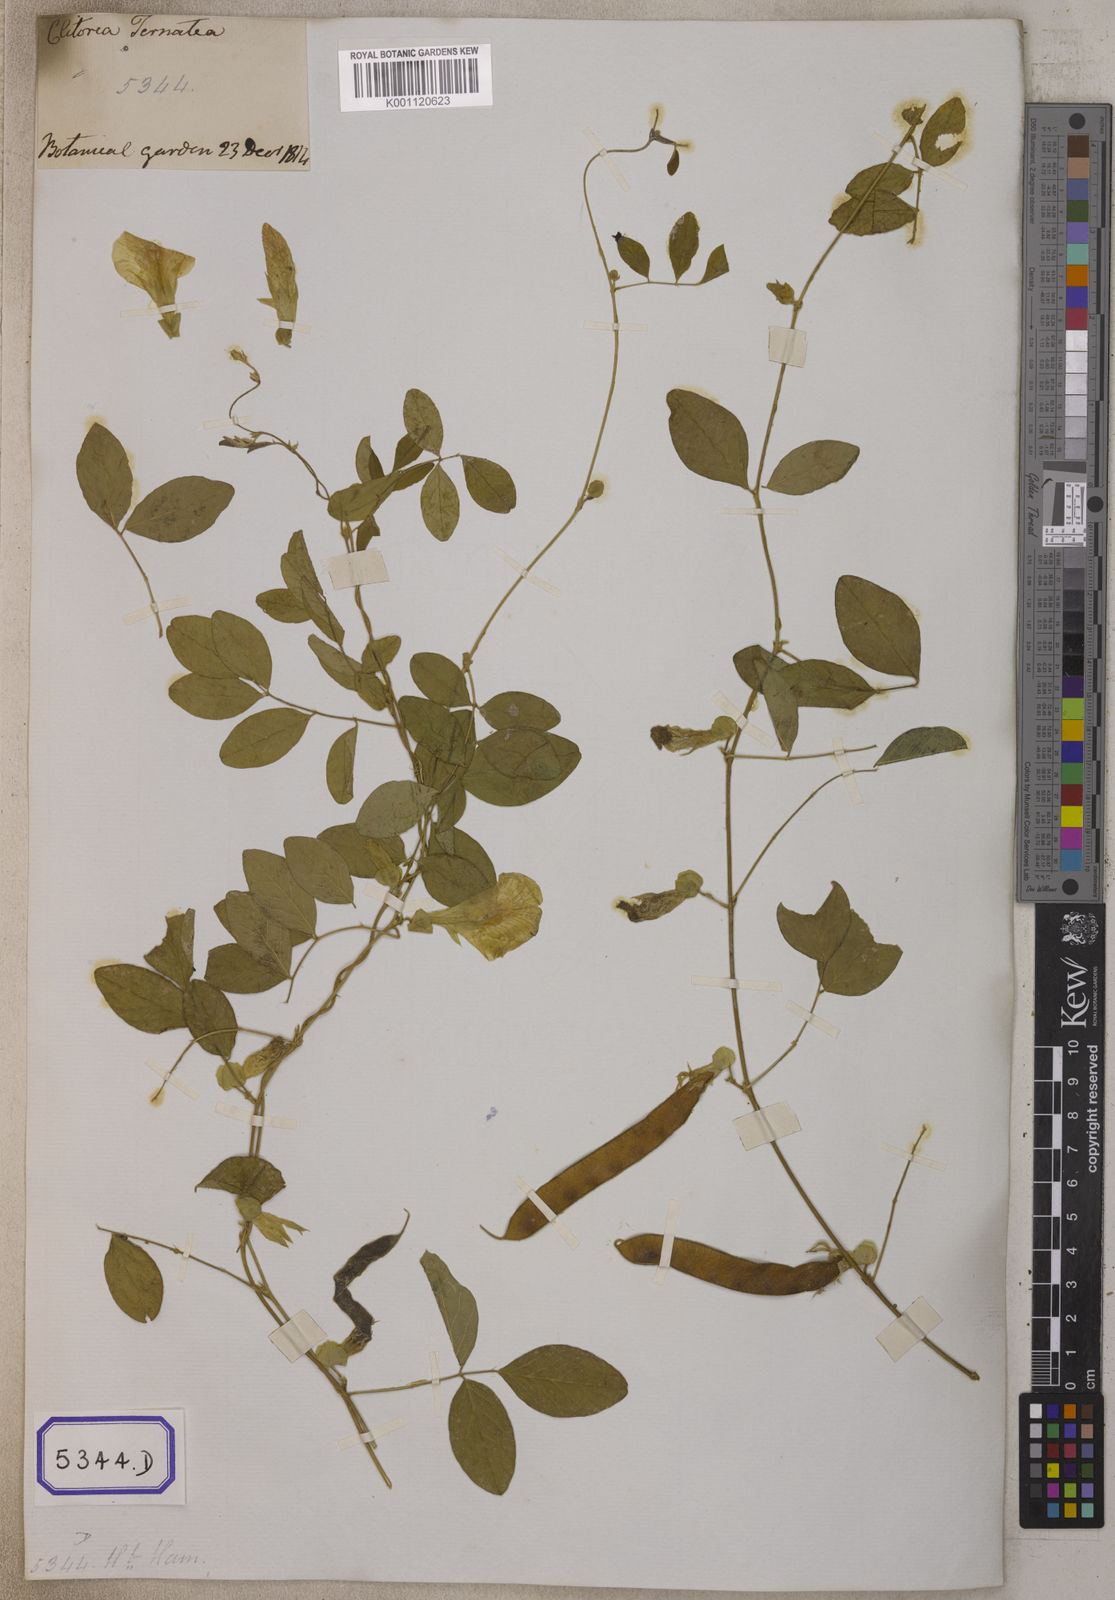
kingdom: Plantae
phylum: Tracheophyta
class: Magnoliopsida
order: Fabales
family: Fabaceae
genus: Clitoria
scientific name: Clitoria ternatea
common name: Asian pigeonwings
